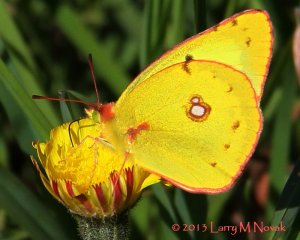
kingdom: Animalia
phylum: Arthropoda
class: Insecta
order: Lepidoptera
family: Pieridae
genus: Colias
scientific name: Colias philodice
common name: Clouded Sulphur
